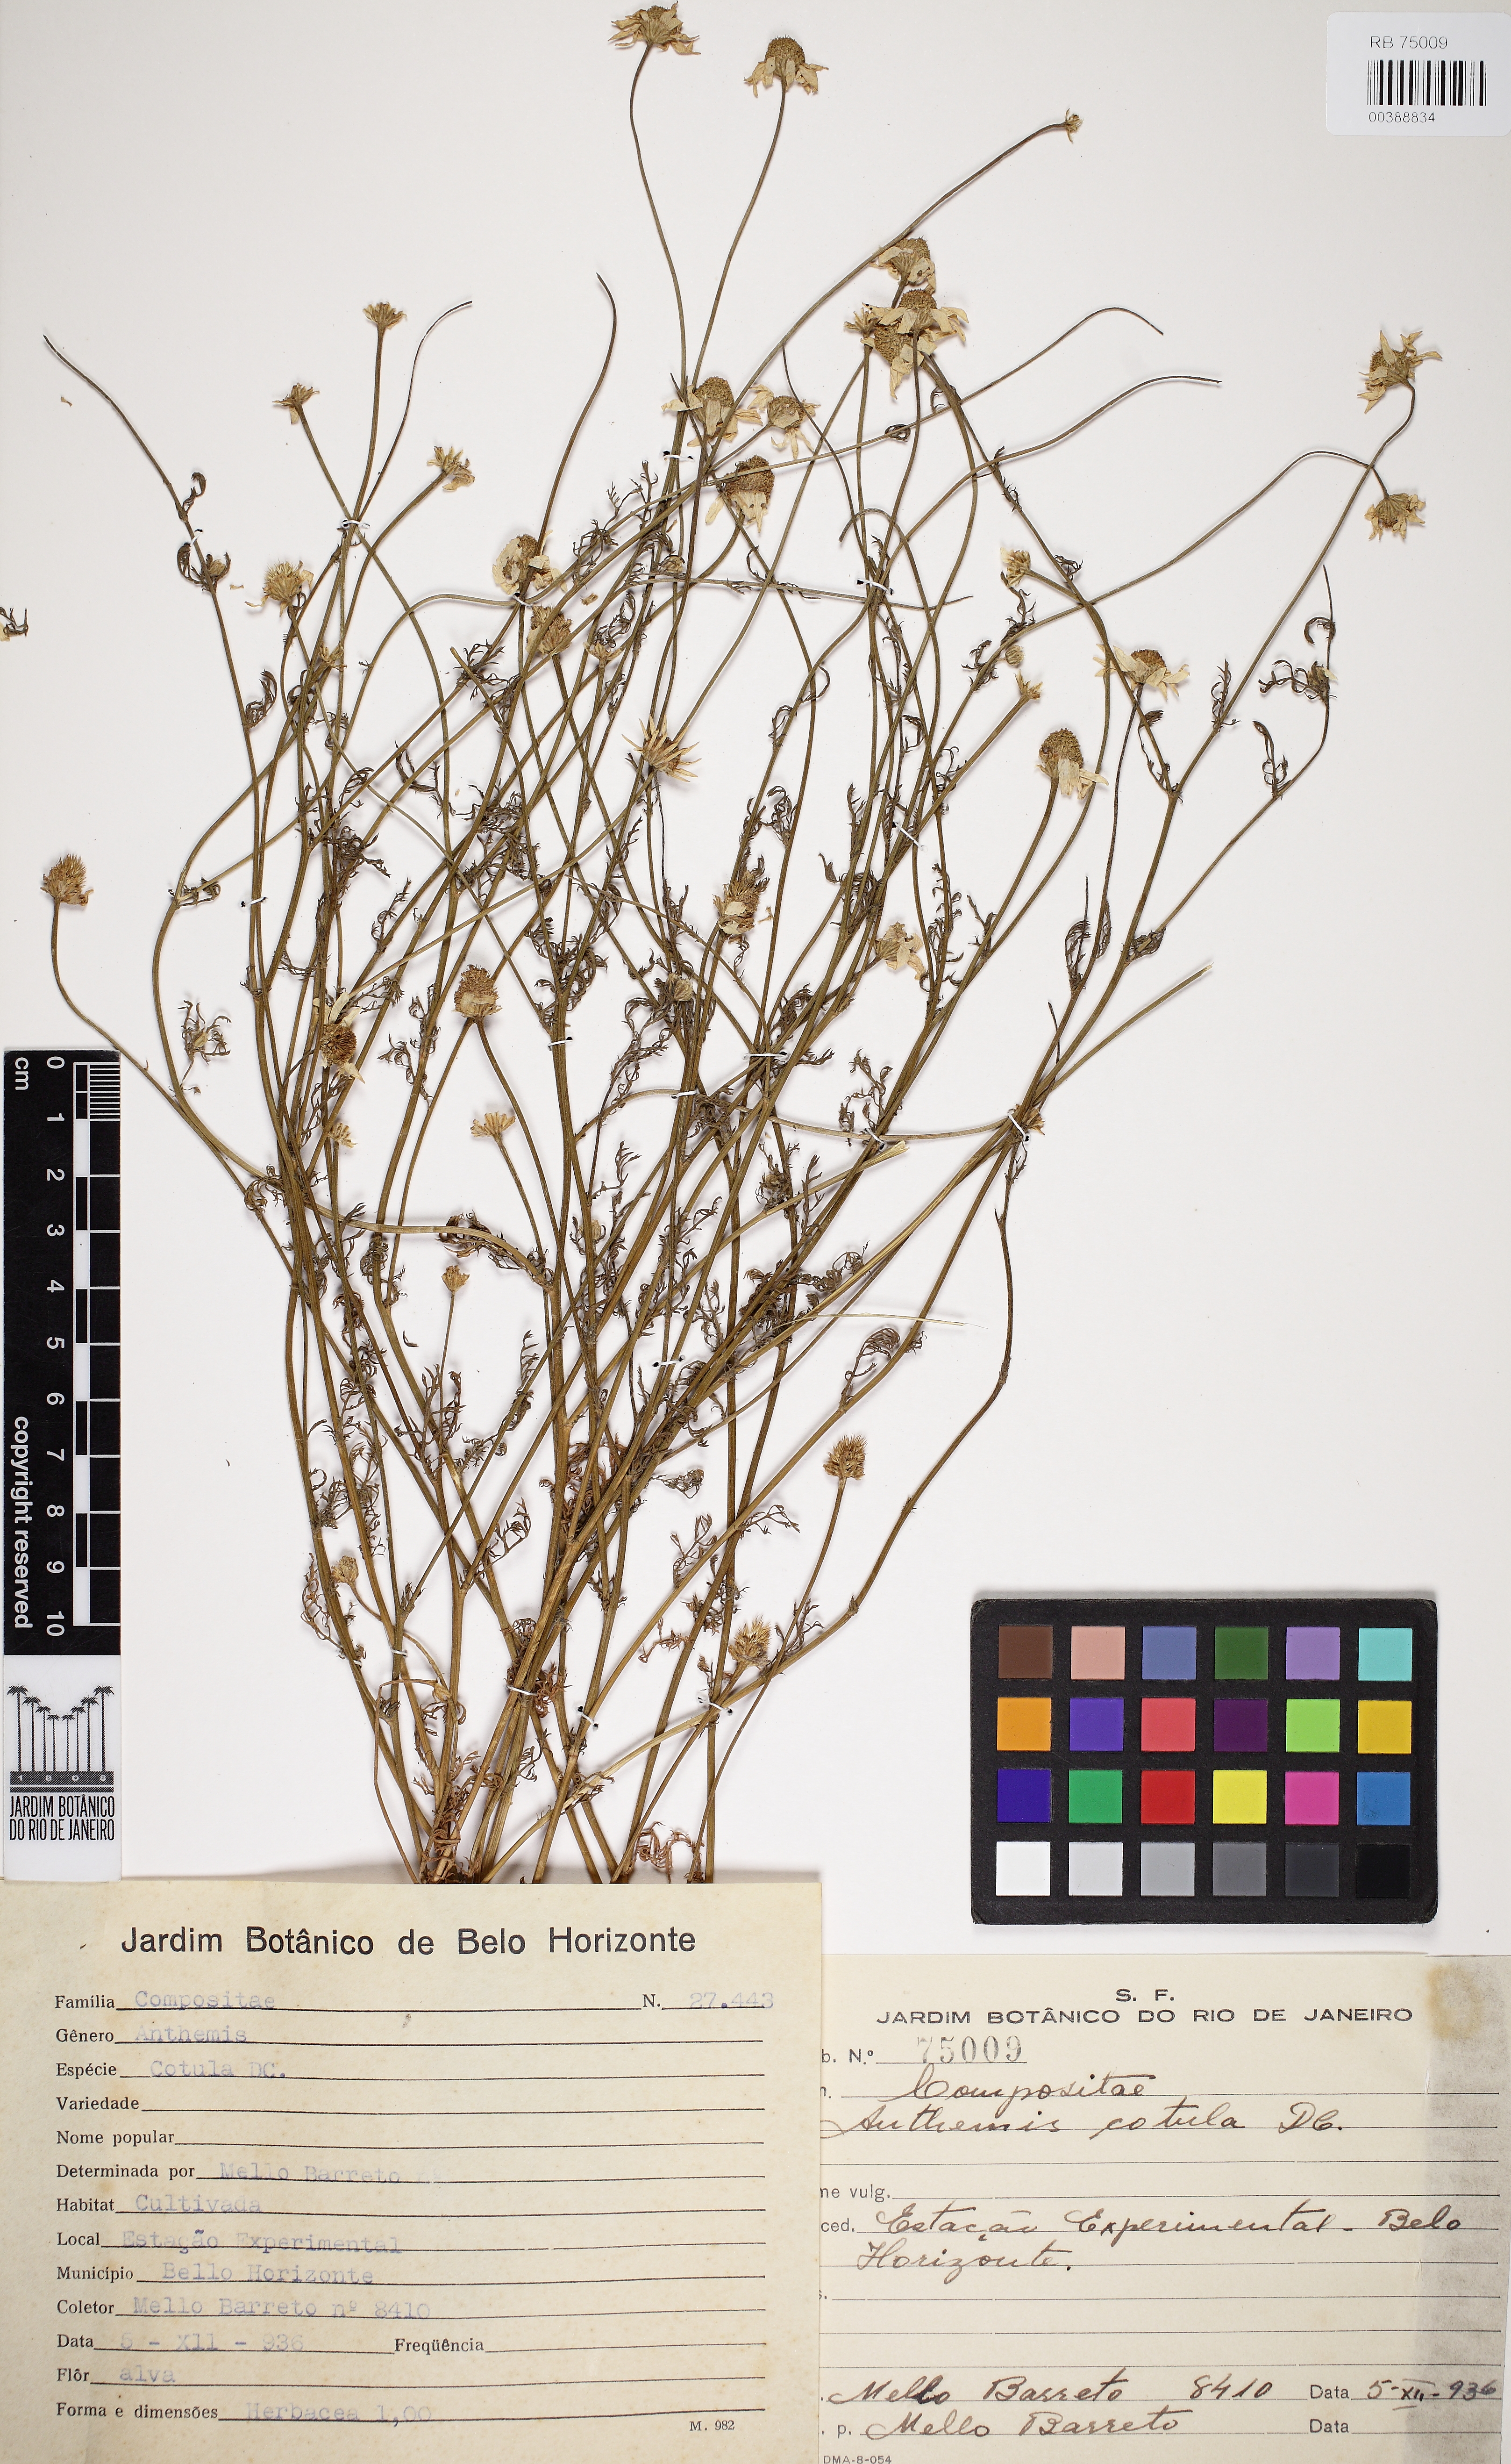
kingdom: Plantae
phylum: Tracheophyta
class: Magnoliopsida
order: Asterales
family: Asteraceae
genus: Anthemis
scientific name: Anthemis cotula
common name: Stinking chamomile
